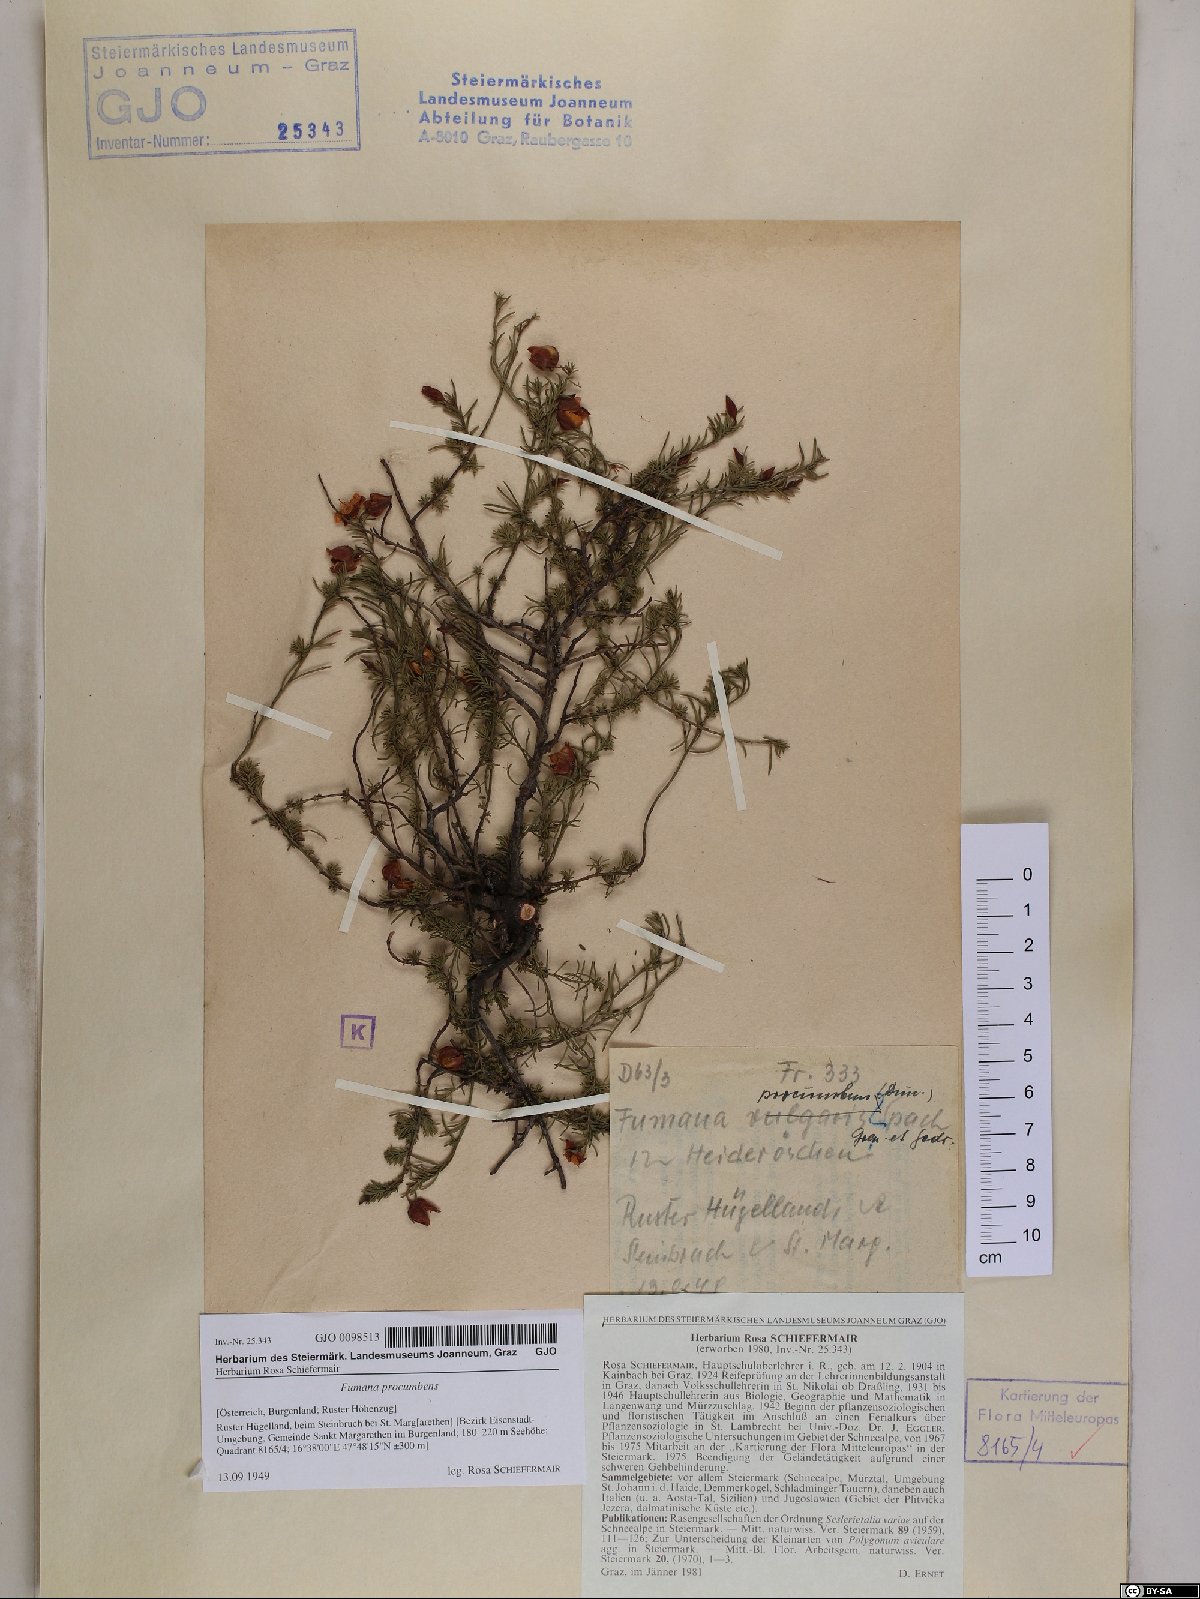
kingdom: Plantae
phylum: Tracheophyta
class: Magnoliopsida
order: Malvales
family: Cistaceae
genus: Fumana
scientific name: Fumana procumbens
